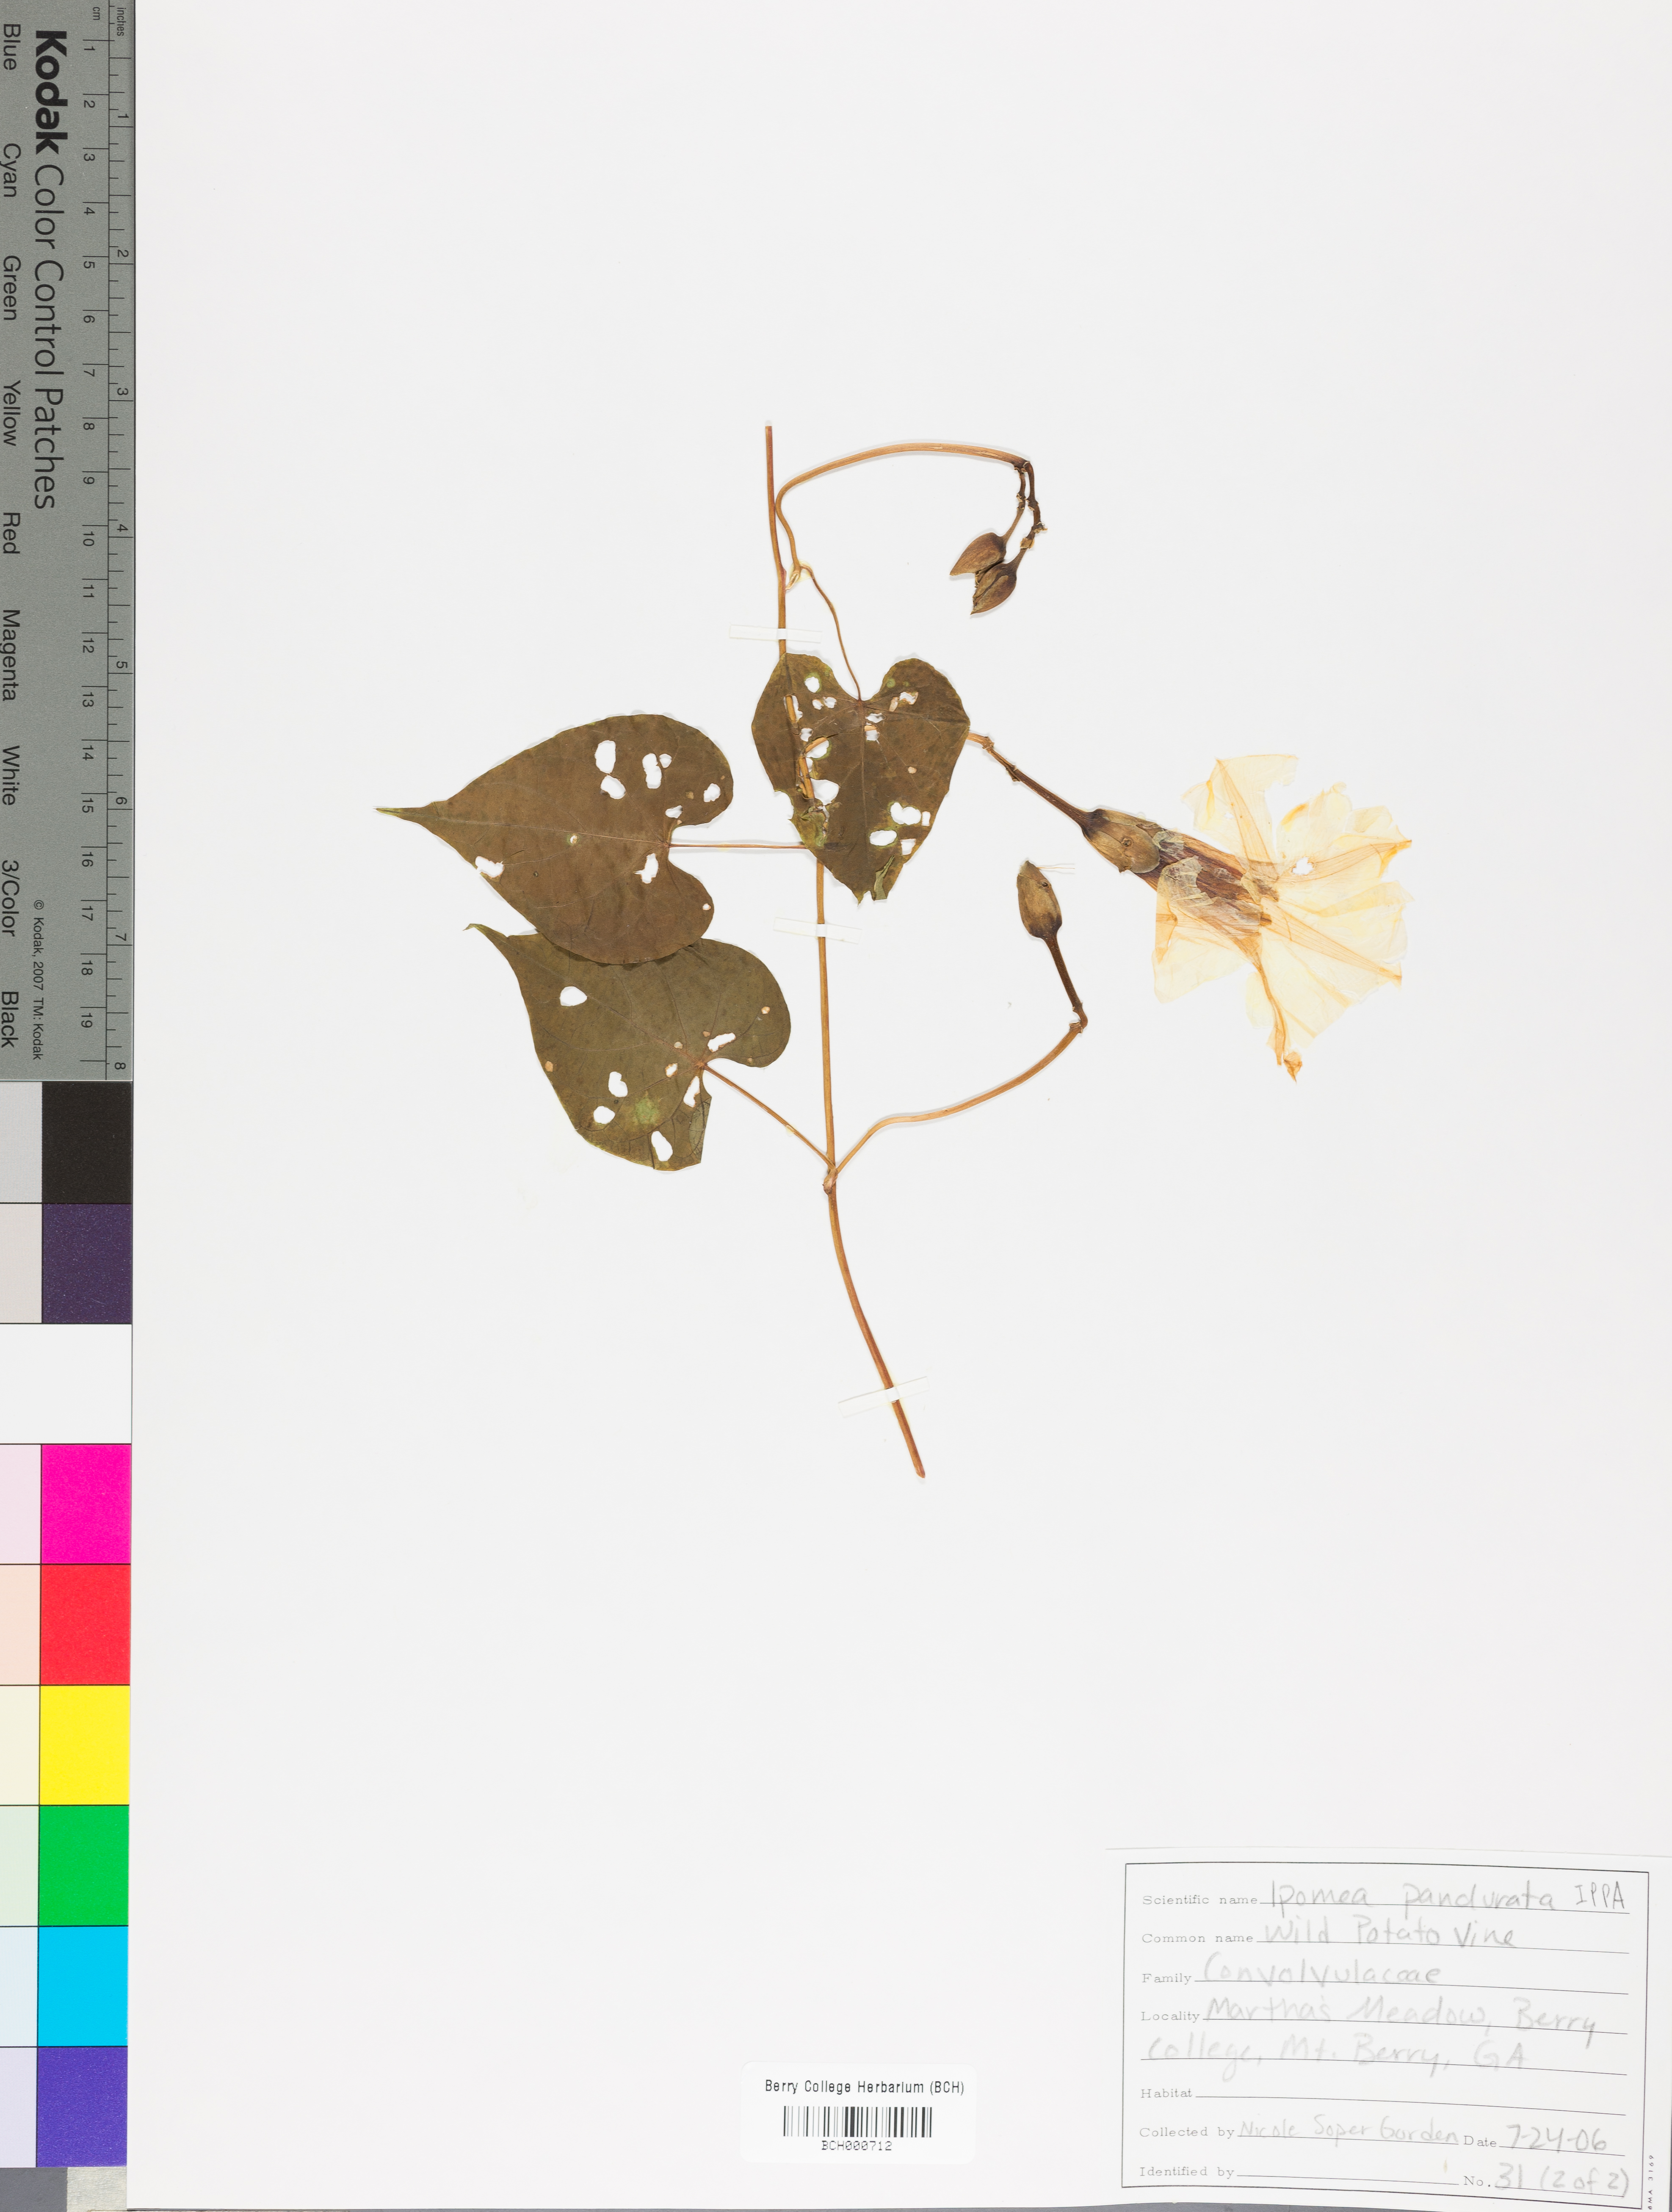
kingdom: Plantae
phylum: Tracheophyta
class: Magnoliopsida
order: Solanales
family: Convolvulaceae
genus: Ipomoea
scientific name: Ipomoea pandurata
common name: Man-of-the-earth
